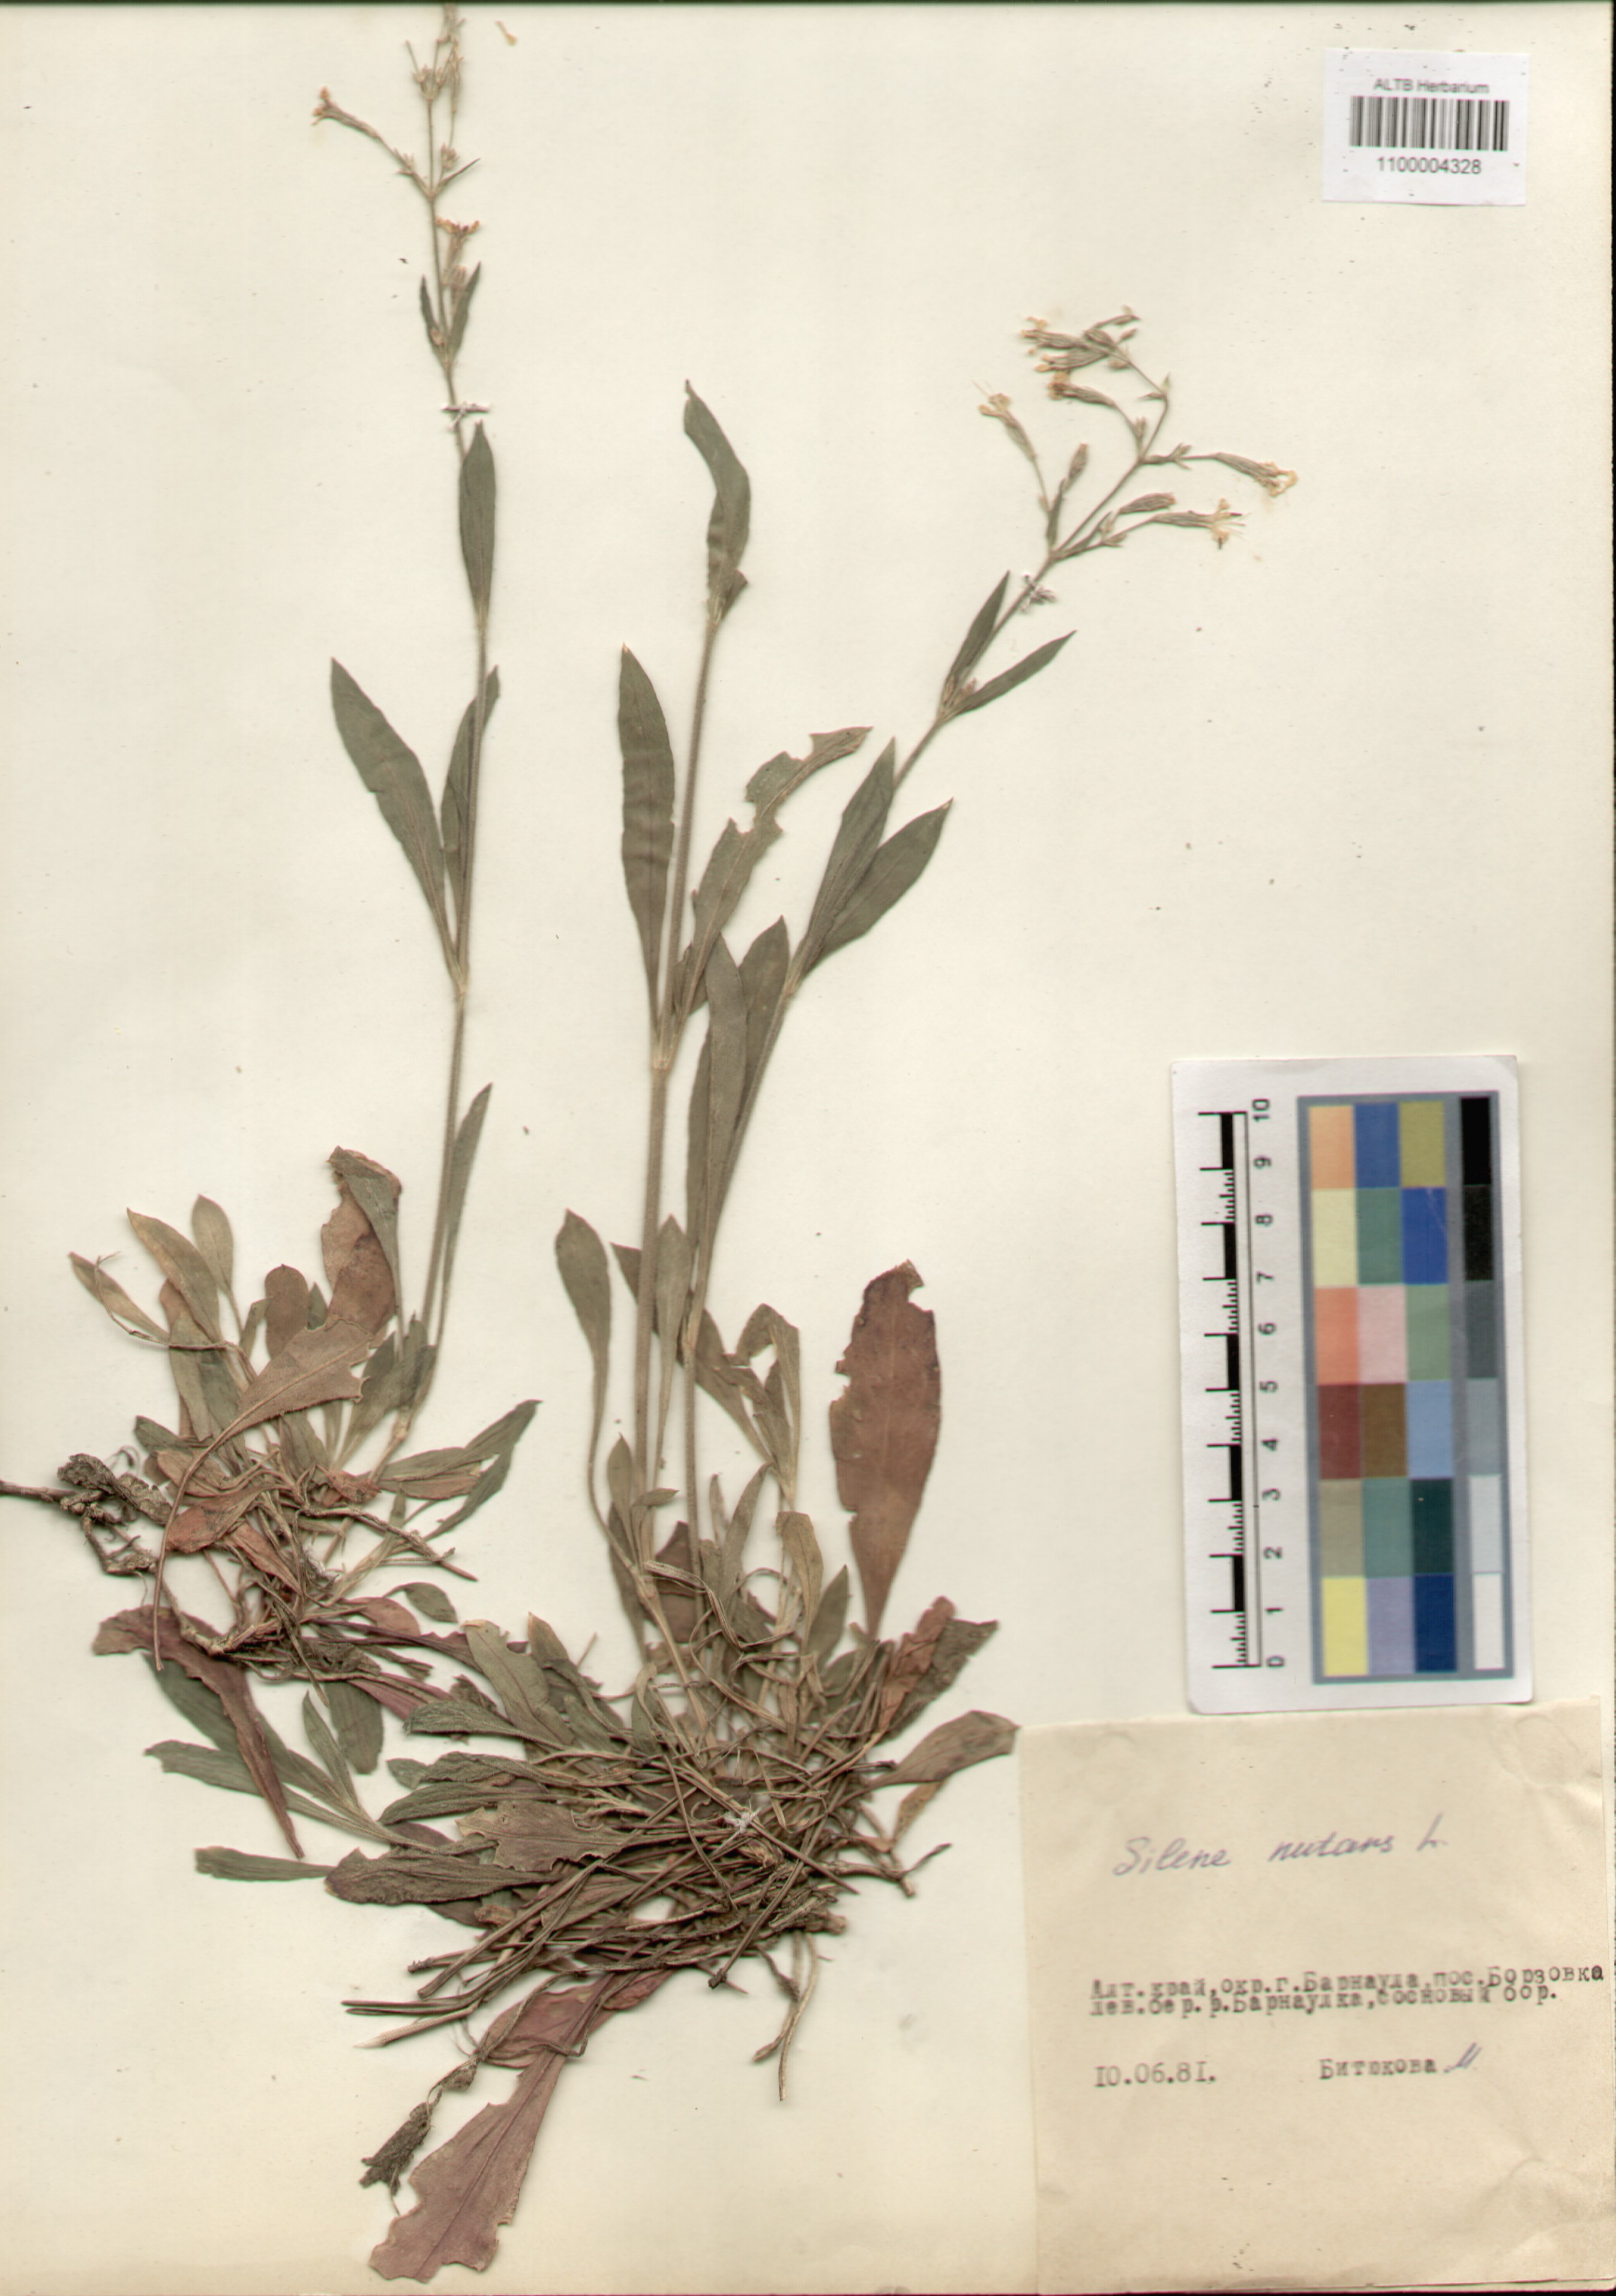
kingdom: Plantae
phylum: Tracheophyta
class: Magnoliopsida
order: Caryophyllales
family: Caryophyllaceae
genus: Silene
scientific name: Silene nutans
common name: Nottingham catchfly
